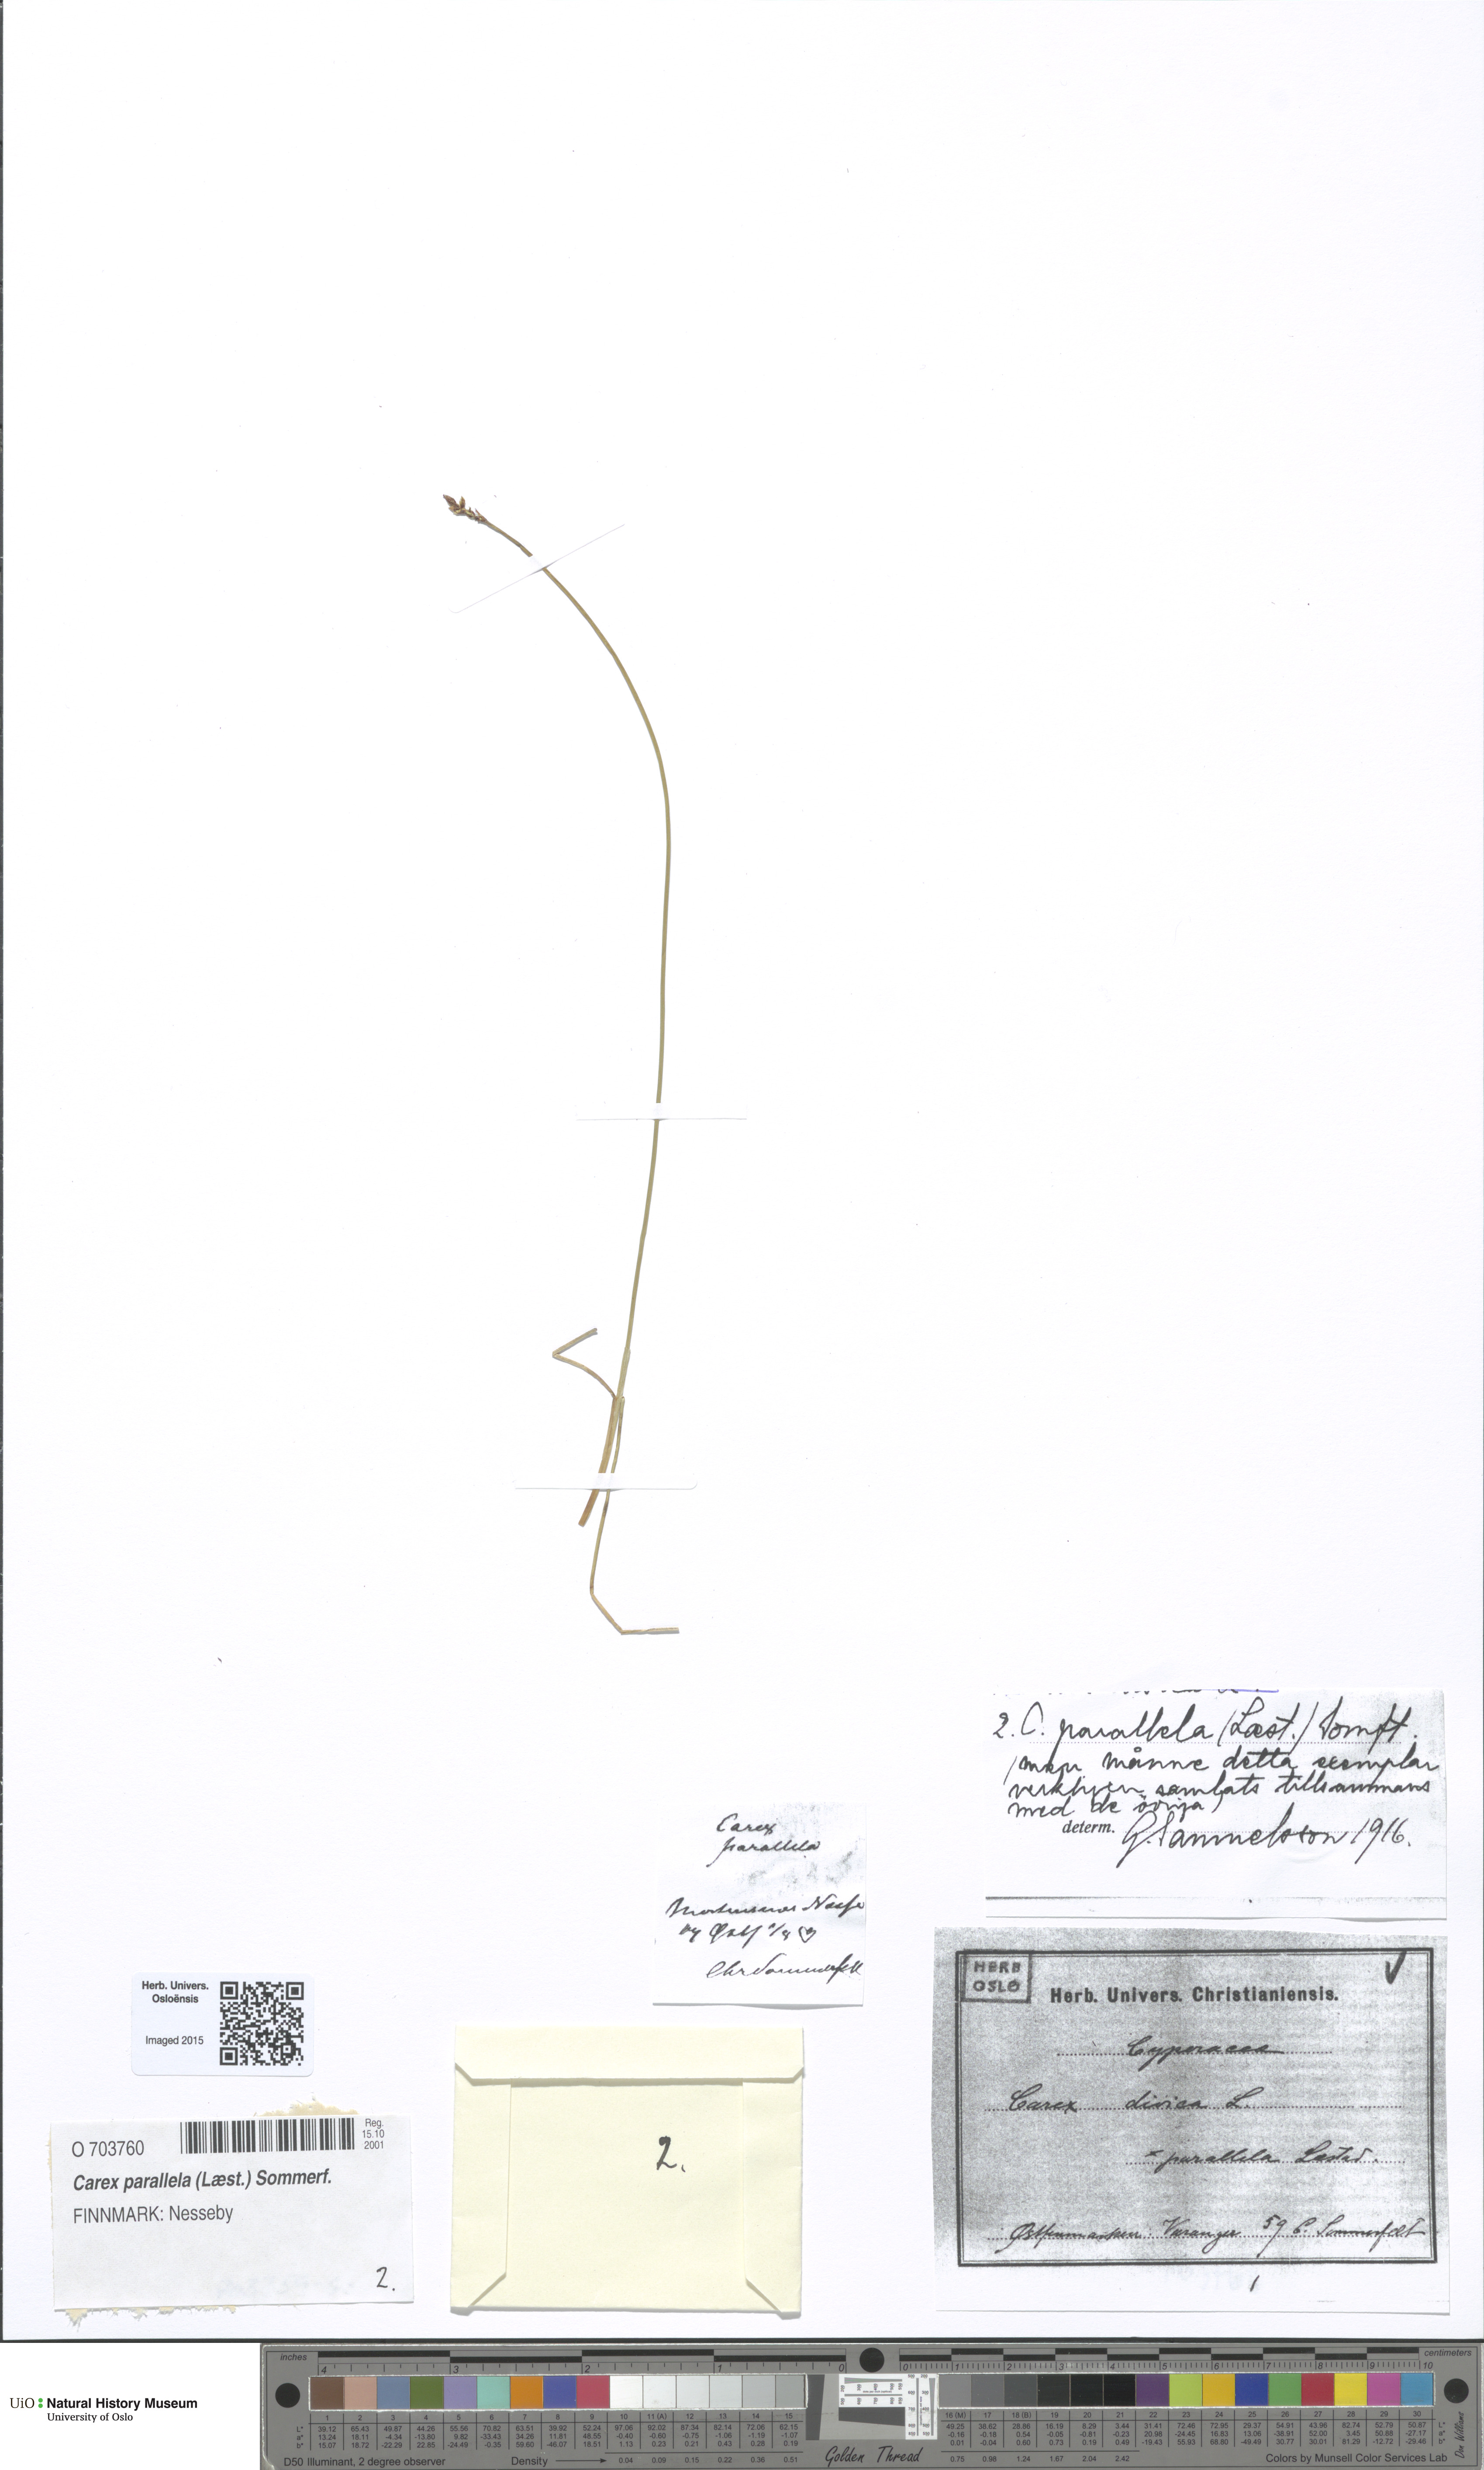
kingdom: Plantae
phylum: Tracheophyta
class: Liliopsida
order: Poales
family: Cyperaceae
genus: Carex
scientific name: Carex parallela
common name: Parallel sedge
